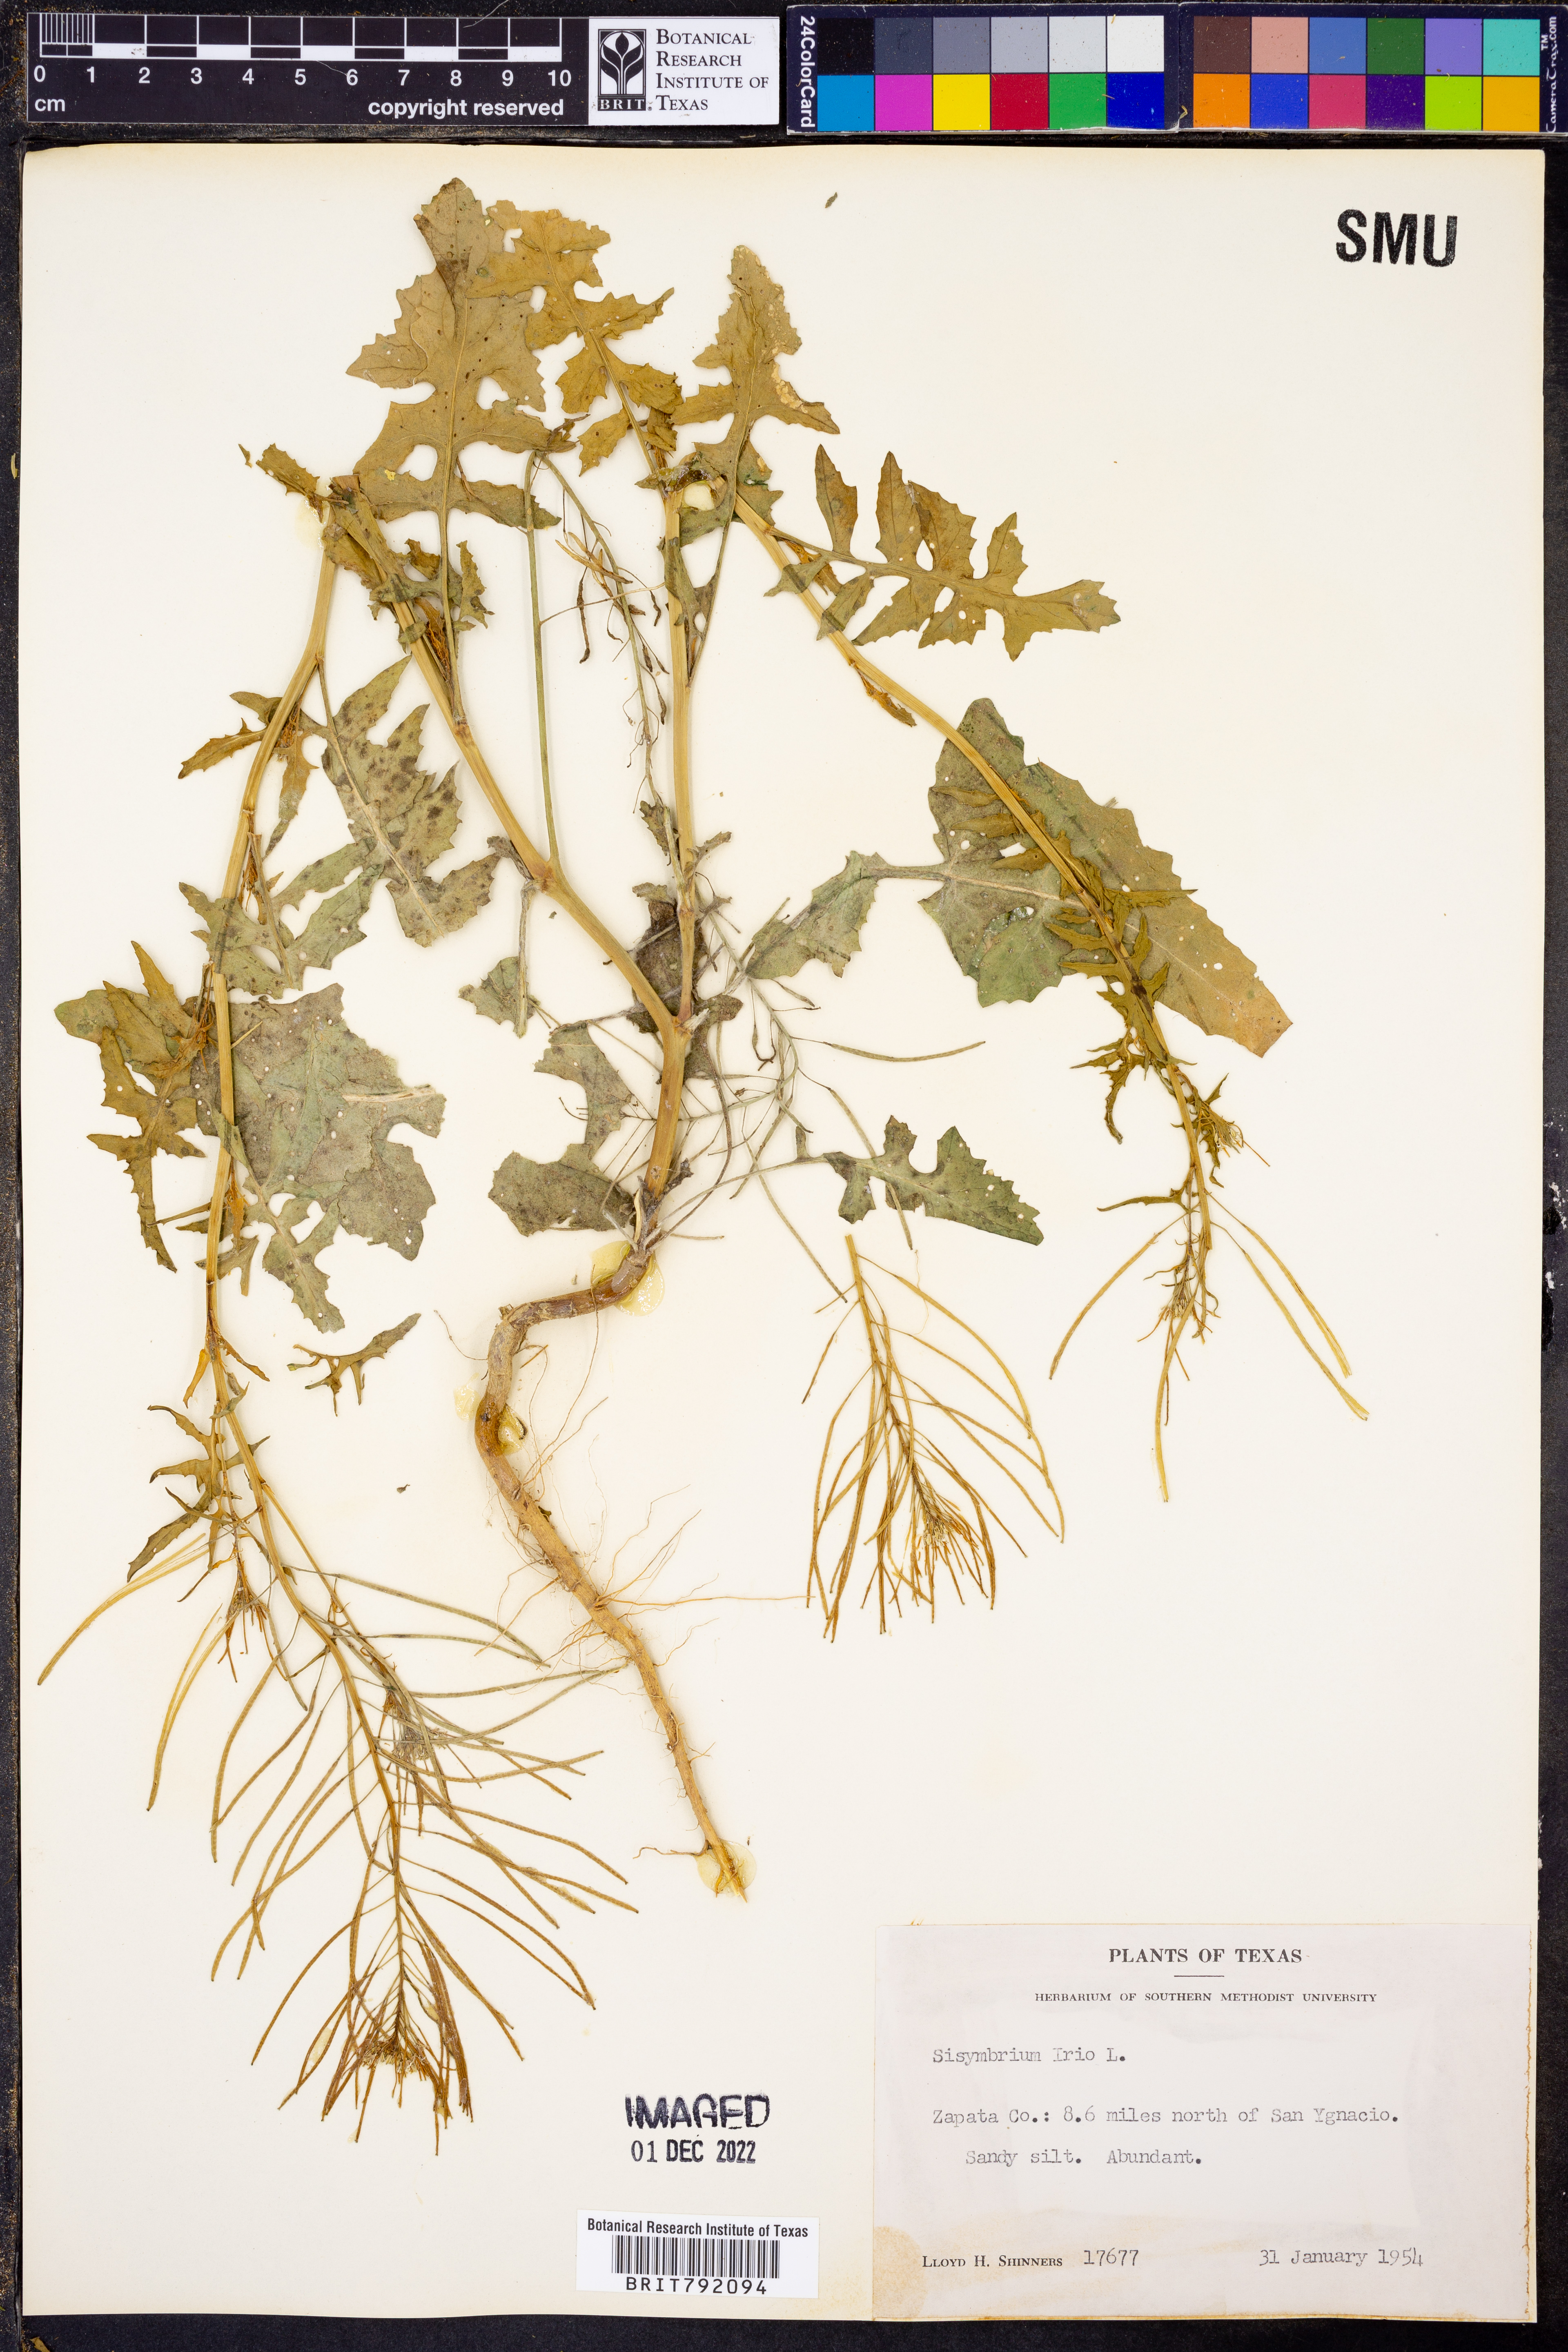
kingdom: Plantae
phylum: Tracheophyta
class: Magnoliopsida
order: Brassicales
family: Brassicaceae
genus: Sisymbrium
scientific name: Sisymbrium irio
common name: London rocket
